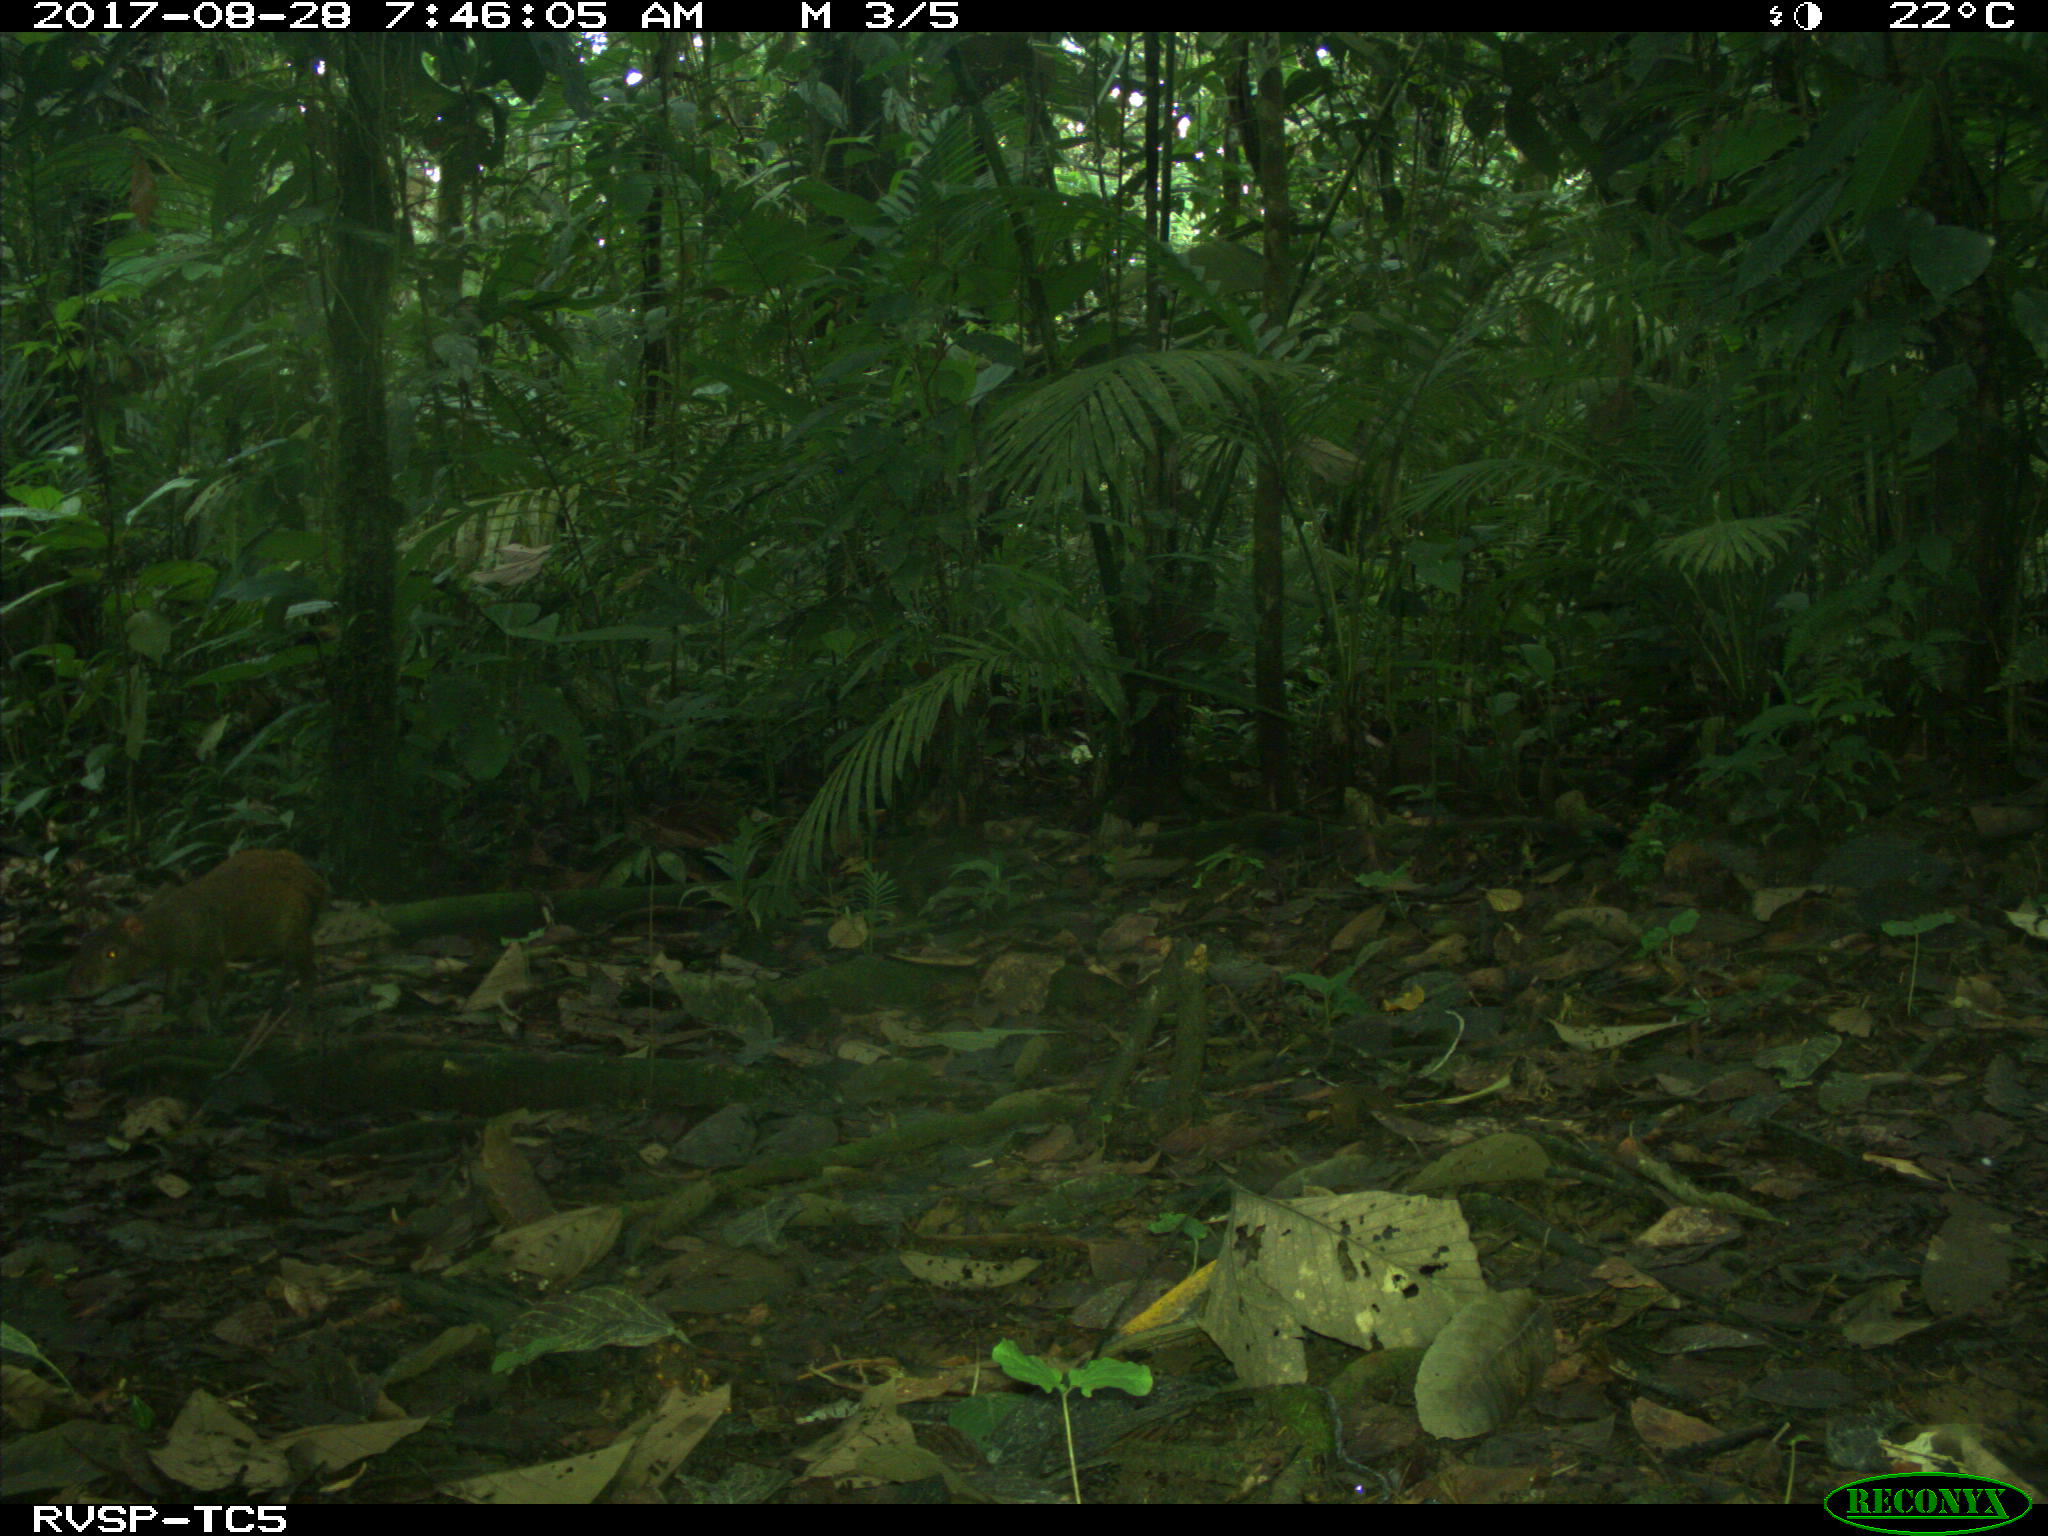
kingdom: Animalia
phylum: Chordata
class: Mammalia
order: Rodentia
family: Dasyproctidae
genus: Dasyprocta
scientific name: Dasyprocta punctata
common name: Central american agouti
